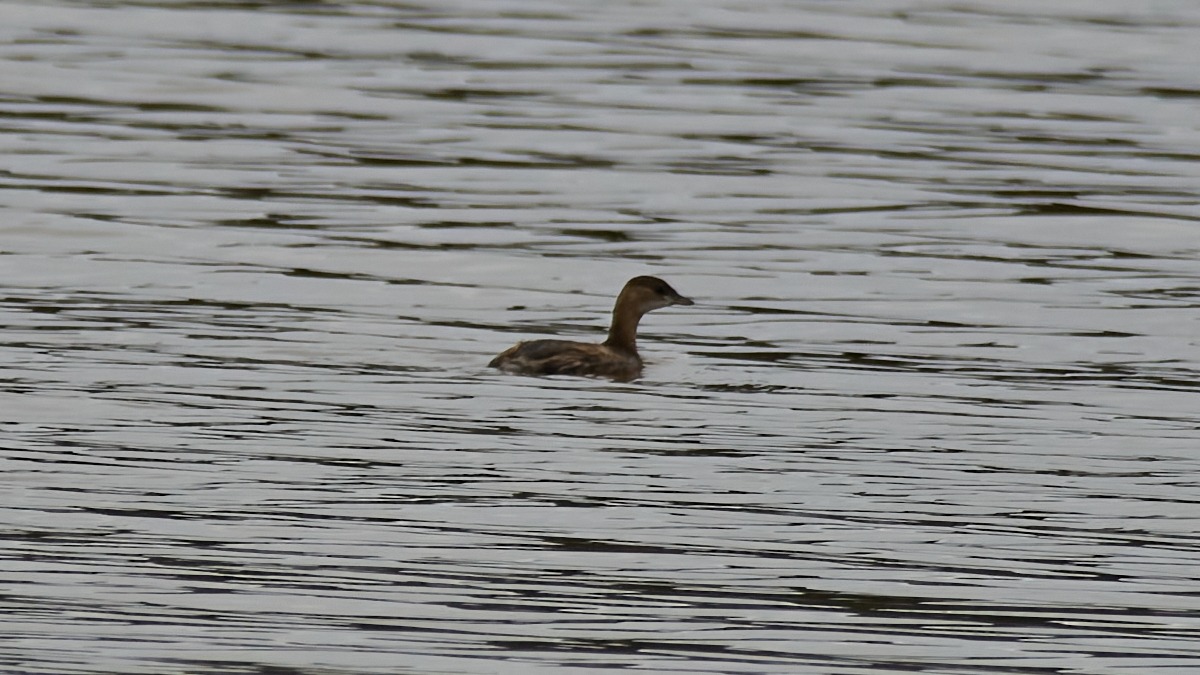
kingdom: Animalia
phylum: Chordata
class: Aves
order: Podicipediformes
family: Podicipedidae
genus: Tachybaptus
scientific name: Tachybaptus ruficollis
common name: Lille lappedykker
